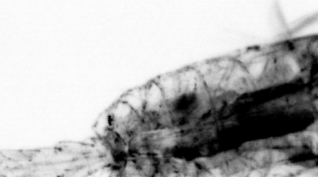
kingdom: Animalia
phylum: Arthropoda
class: Copepoda
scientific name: Copepoda
